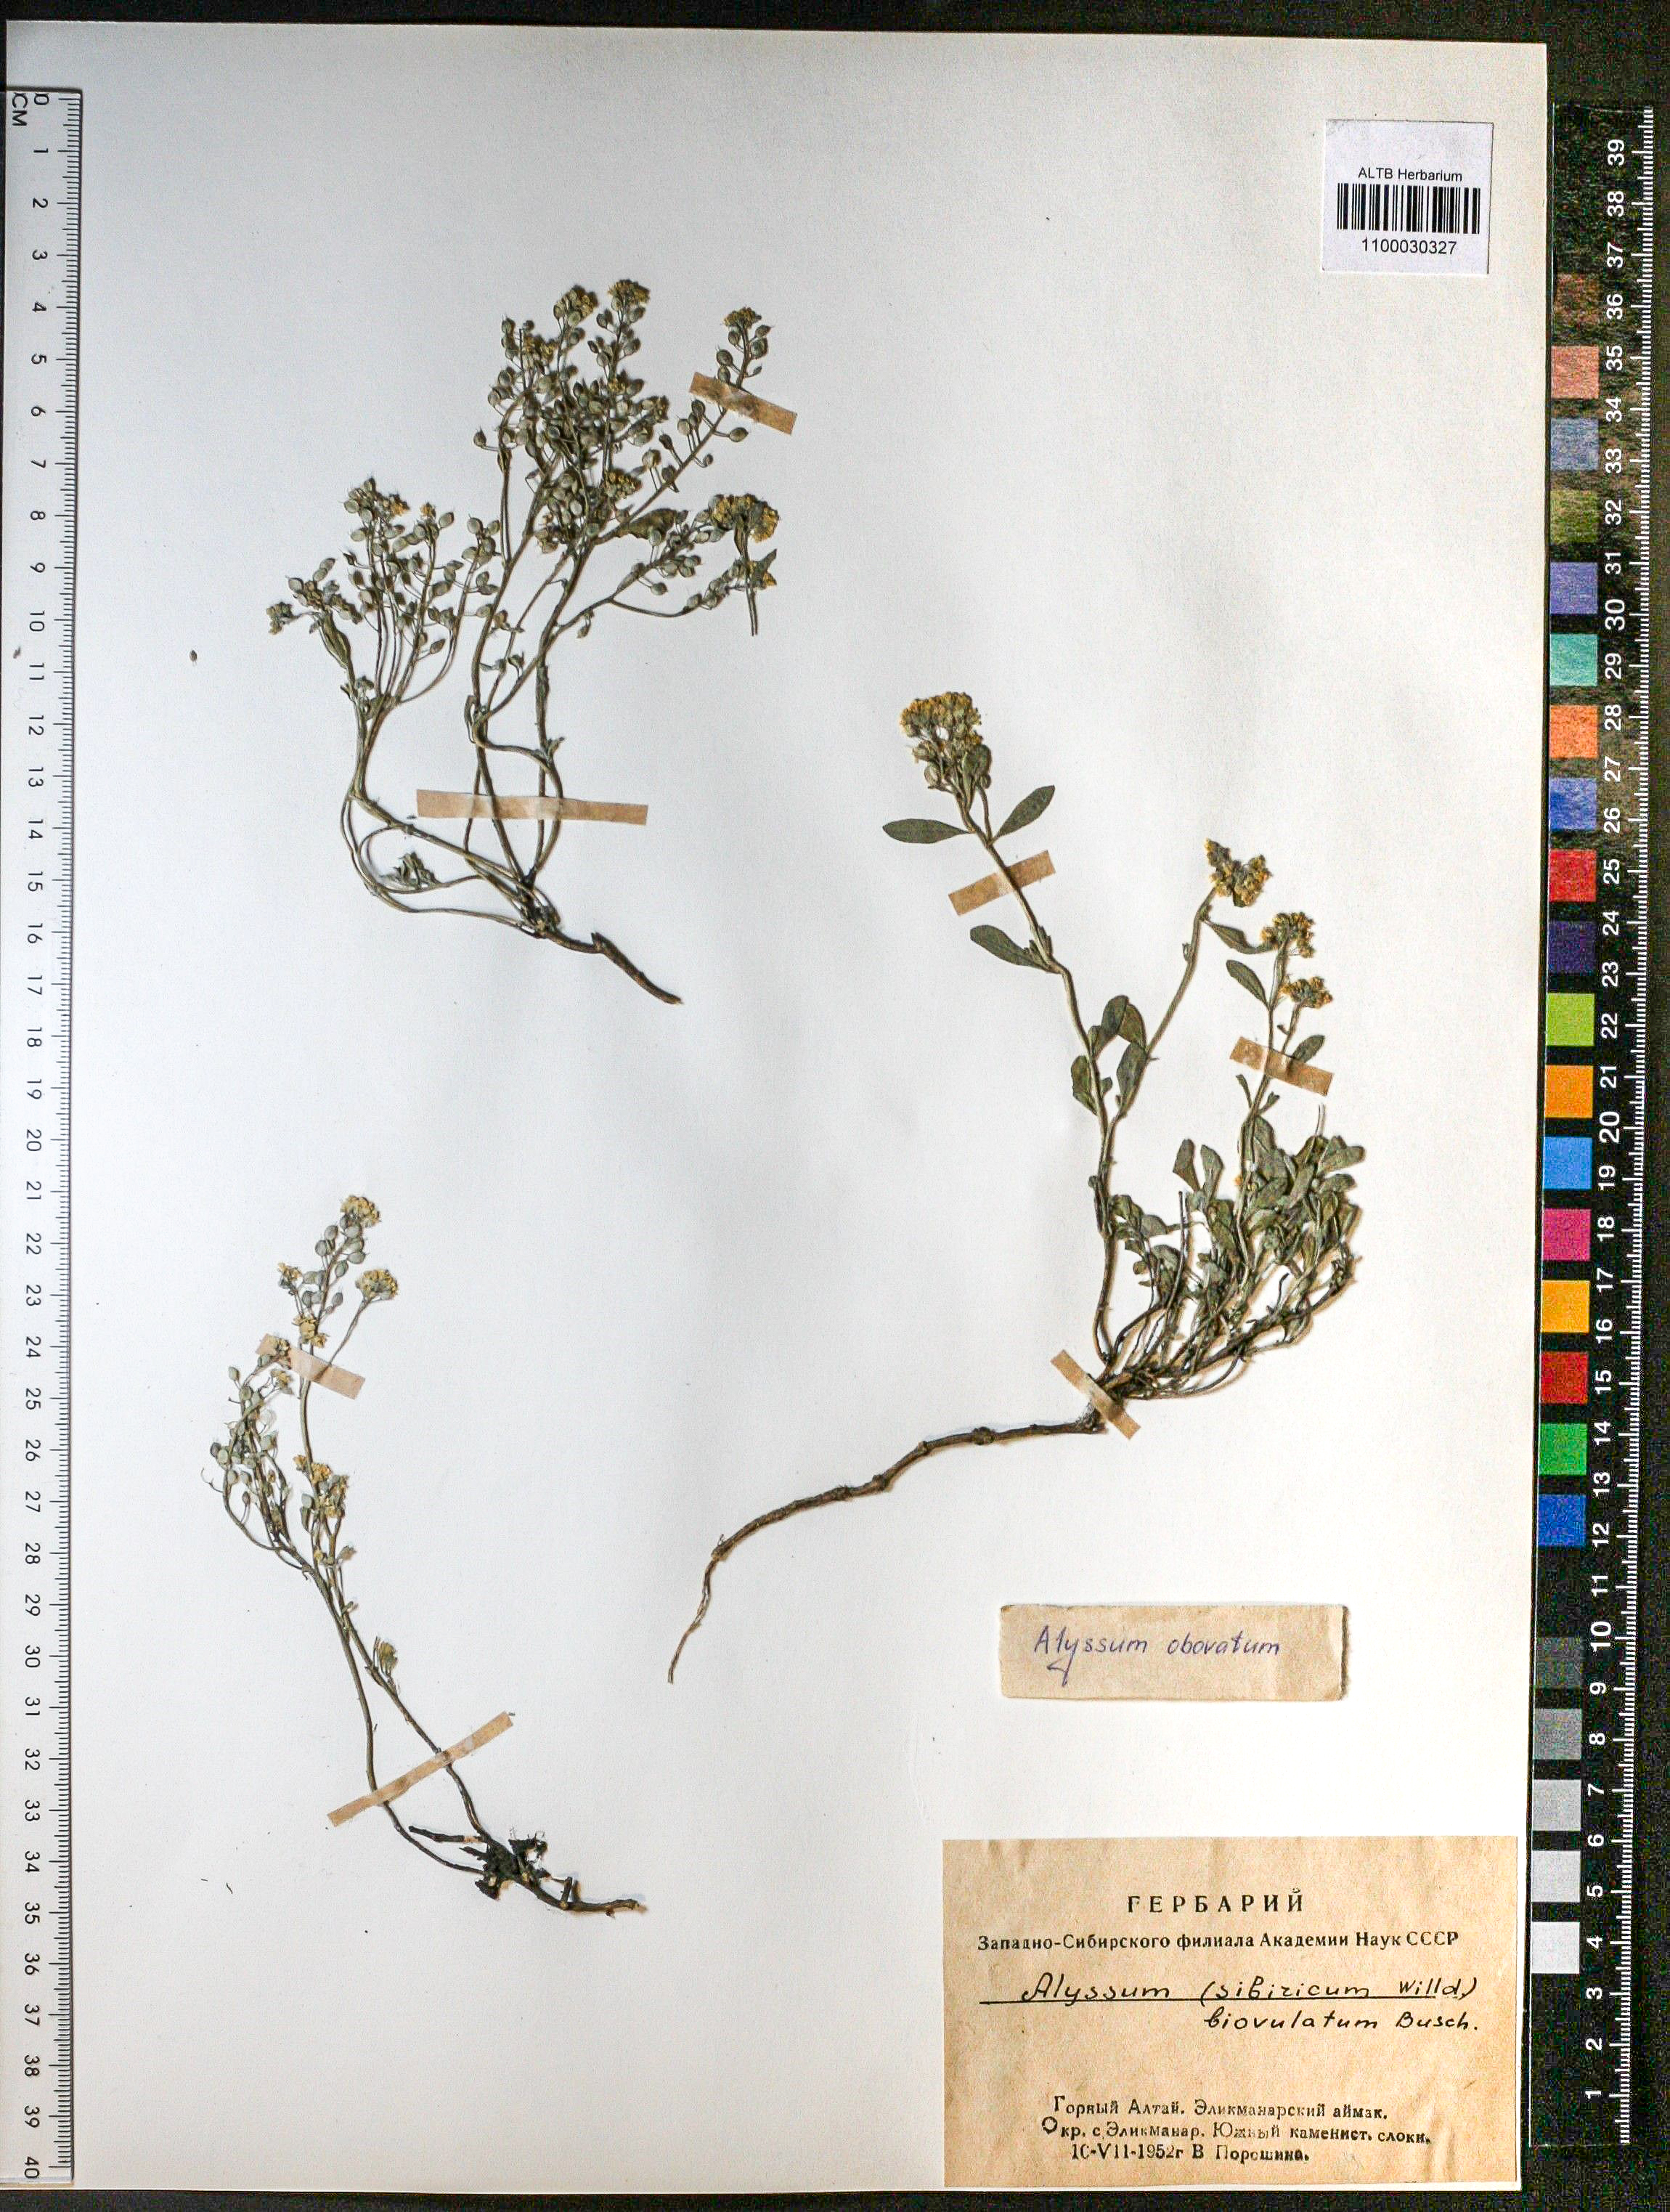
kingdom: Plantae
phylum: Tracheophyta
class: Magnoliopsida
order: Brassicales
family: Brassicaceae
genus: Odontarrhena
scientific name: Odontarrhena obovata
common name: American alyssum
